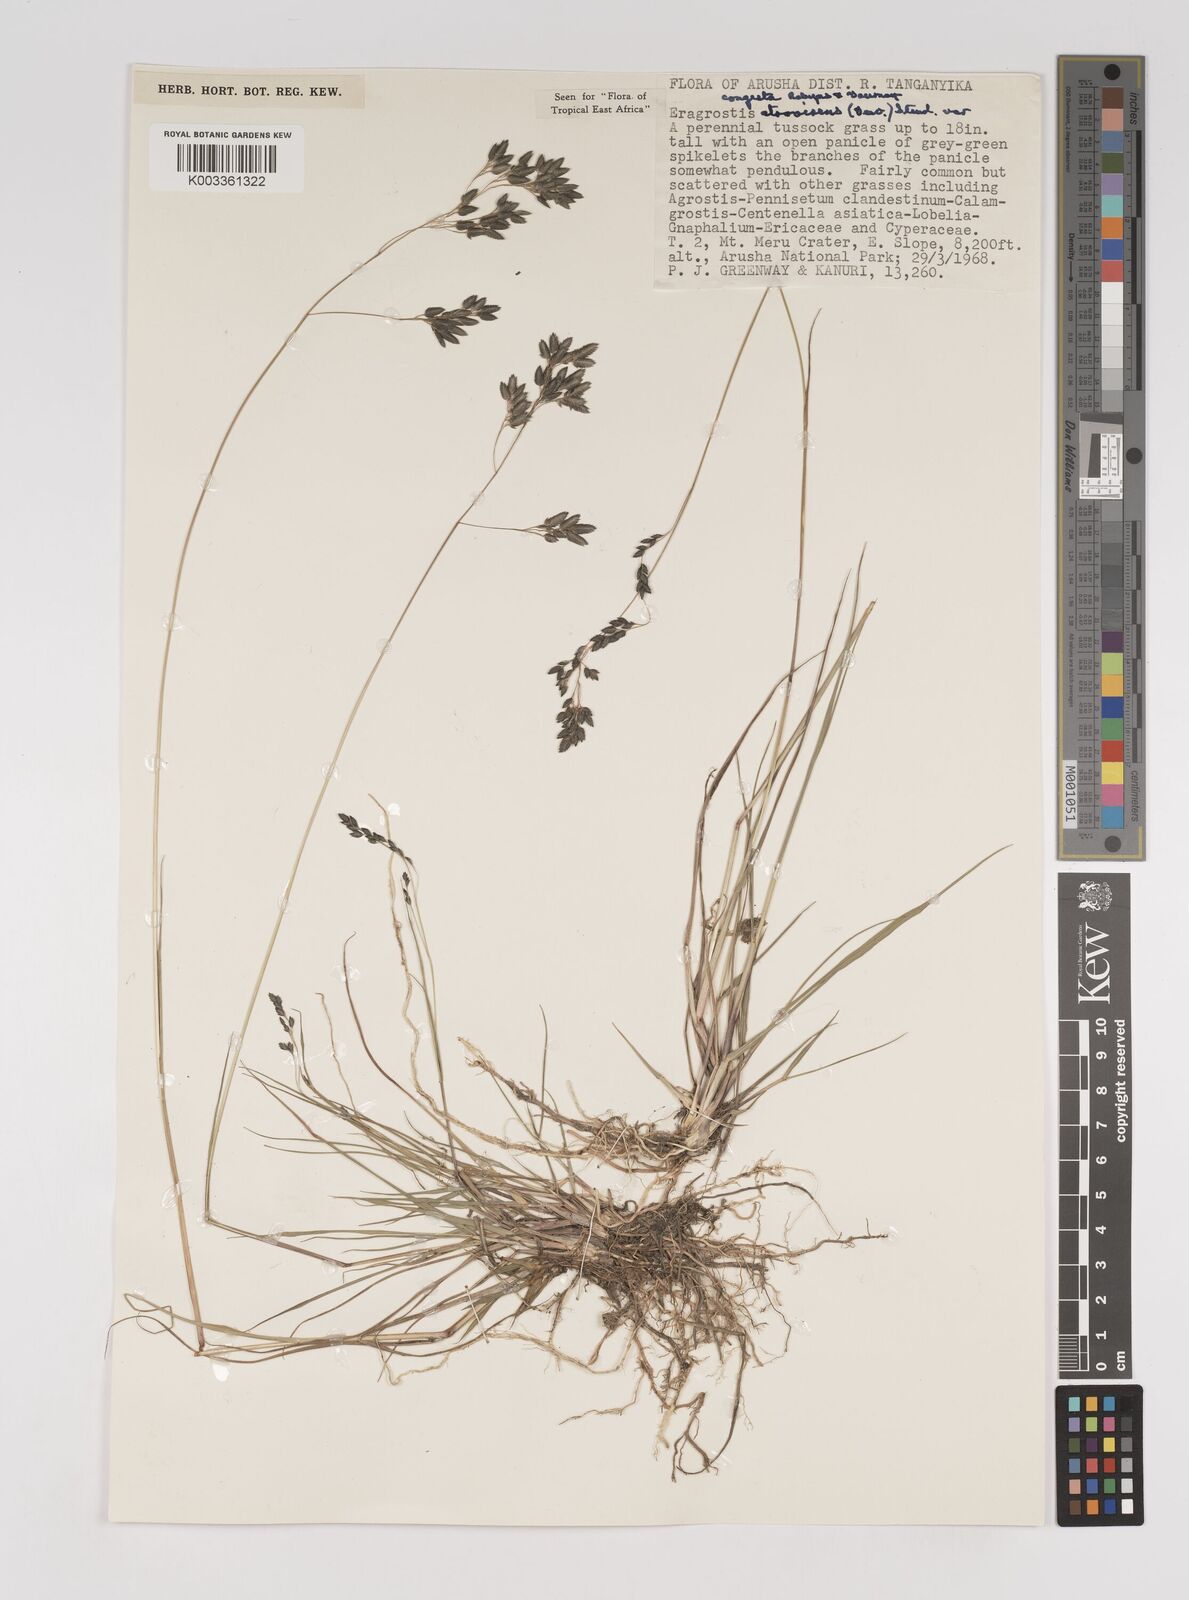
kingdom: Plantae
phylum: Tracheophyta
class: Liliopsida
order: Poales
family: Poaceae
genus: Eragrostis
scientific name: Eragrostis botryodes
